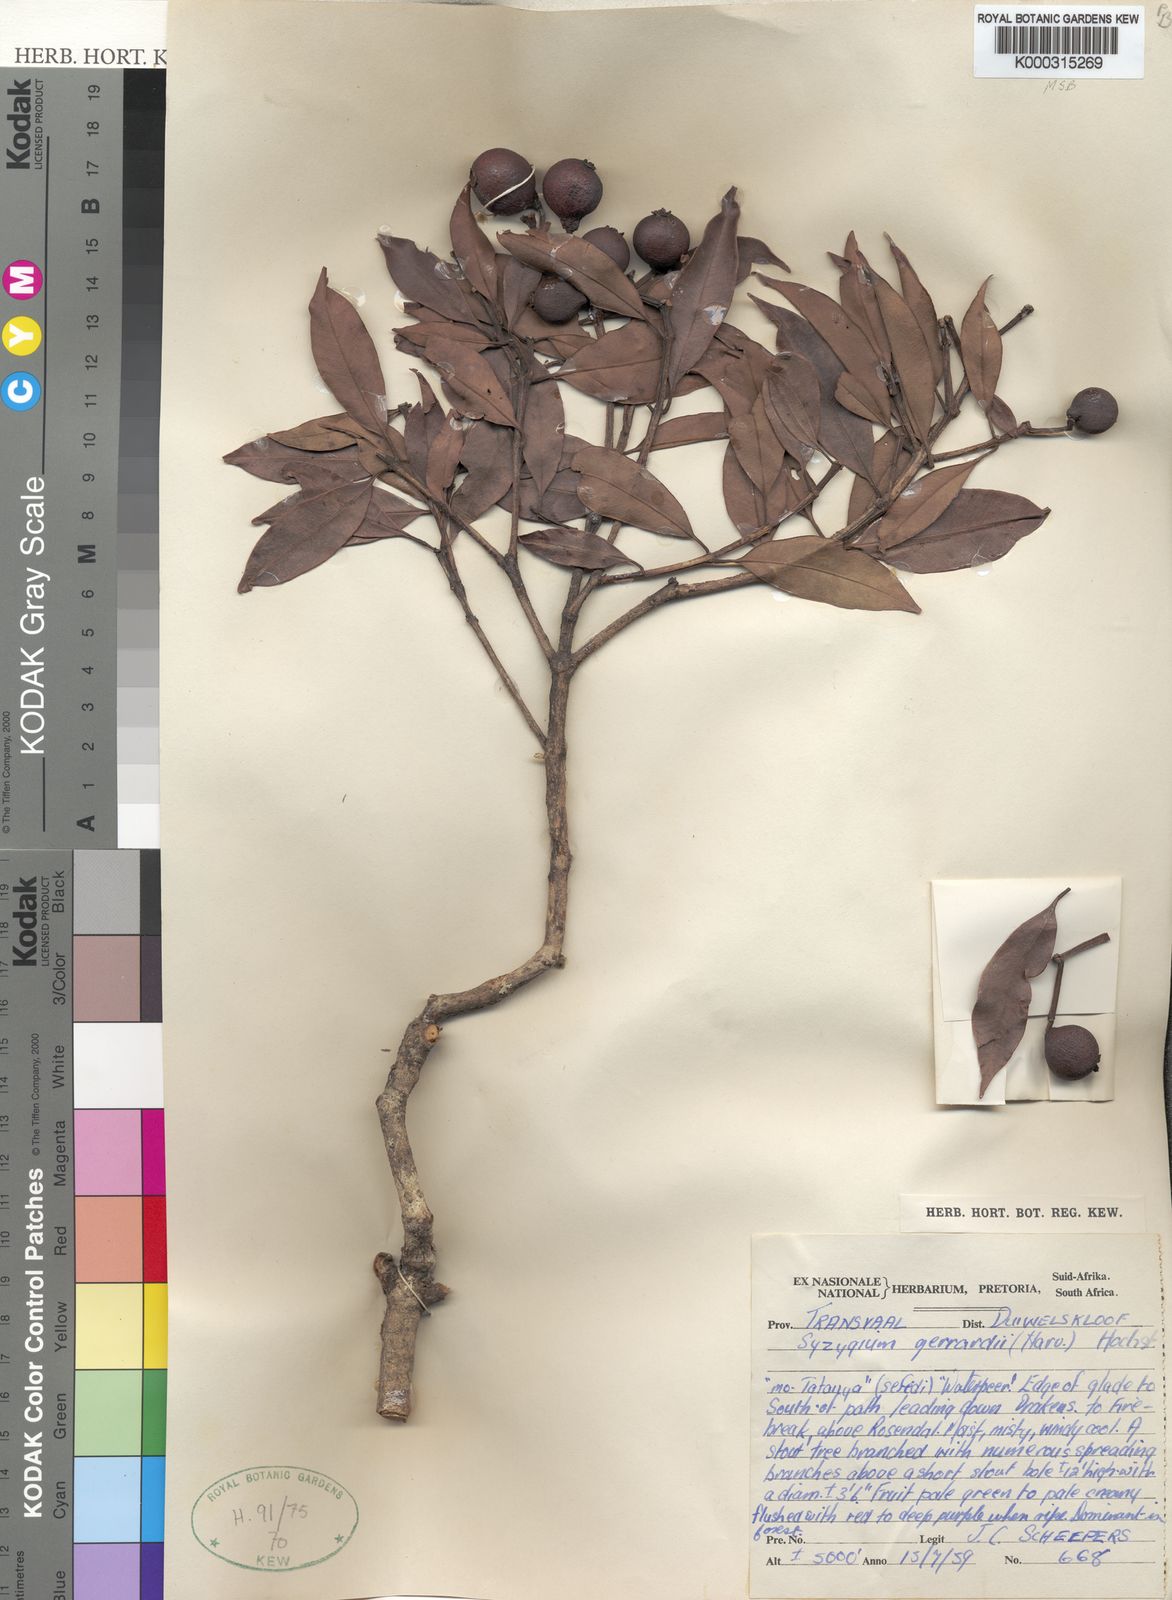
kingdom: Plantae
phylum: Tracheophyta
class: Magnoliopsida
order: Myrtales
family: Myrtaceae
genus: Syzygium
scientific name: Syzygium gerrardii
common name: Forest waterberry
